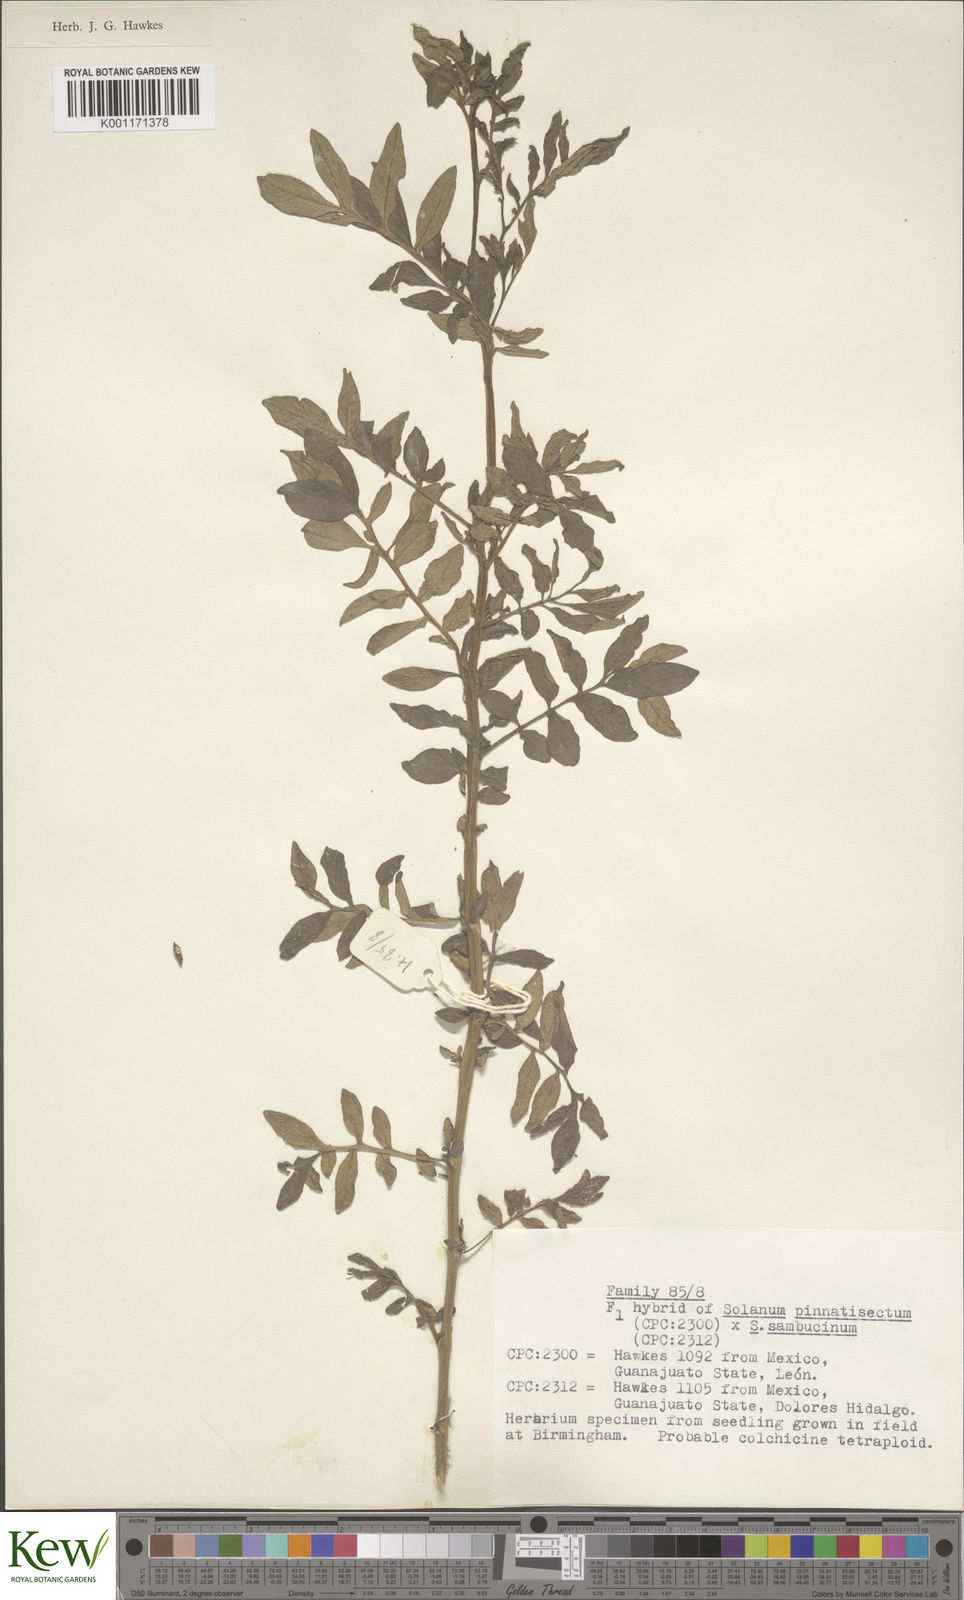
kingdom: Plantae
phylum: Tracheophyta
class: Magnoliopsida
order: Solanales
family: Solanaceae
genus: Solanum
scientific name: Solanum pinnatisectum
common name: Tansyleaf nightshade
